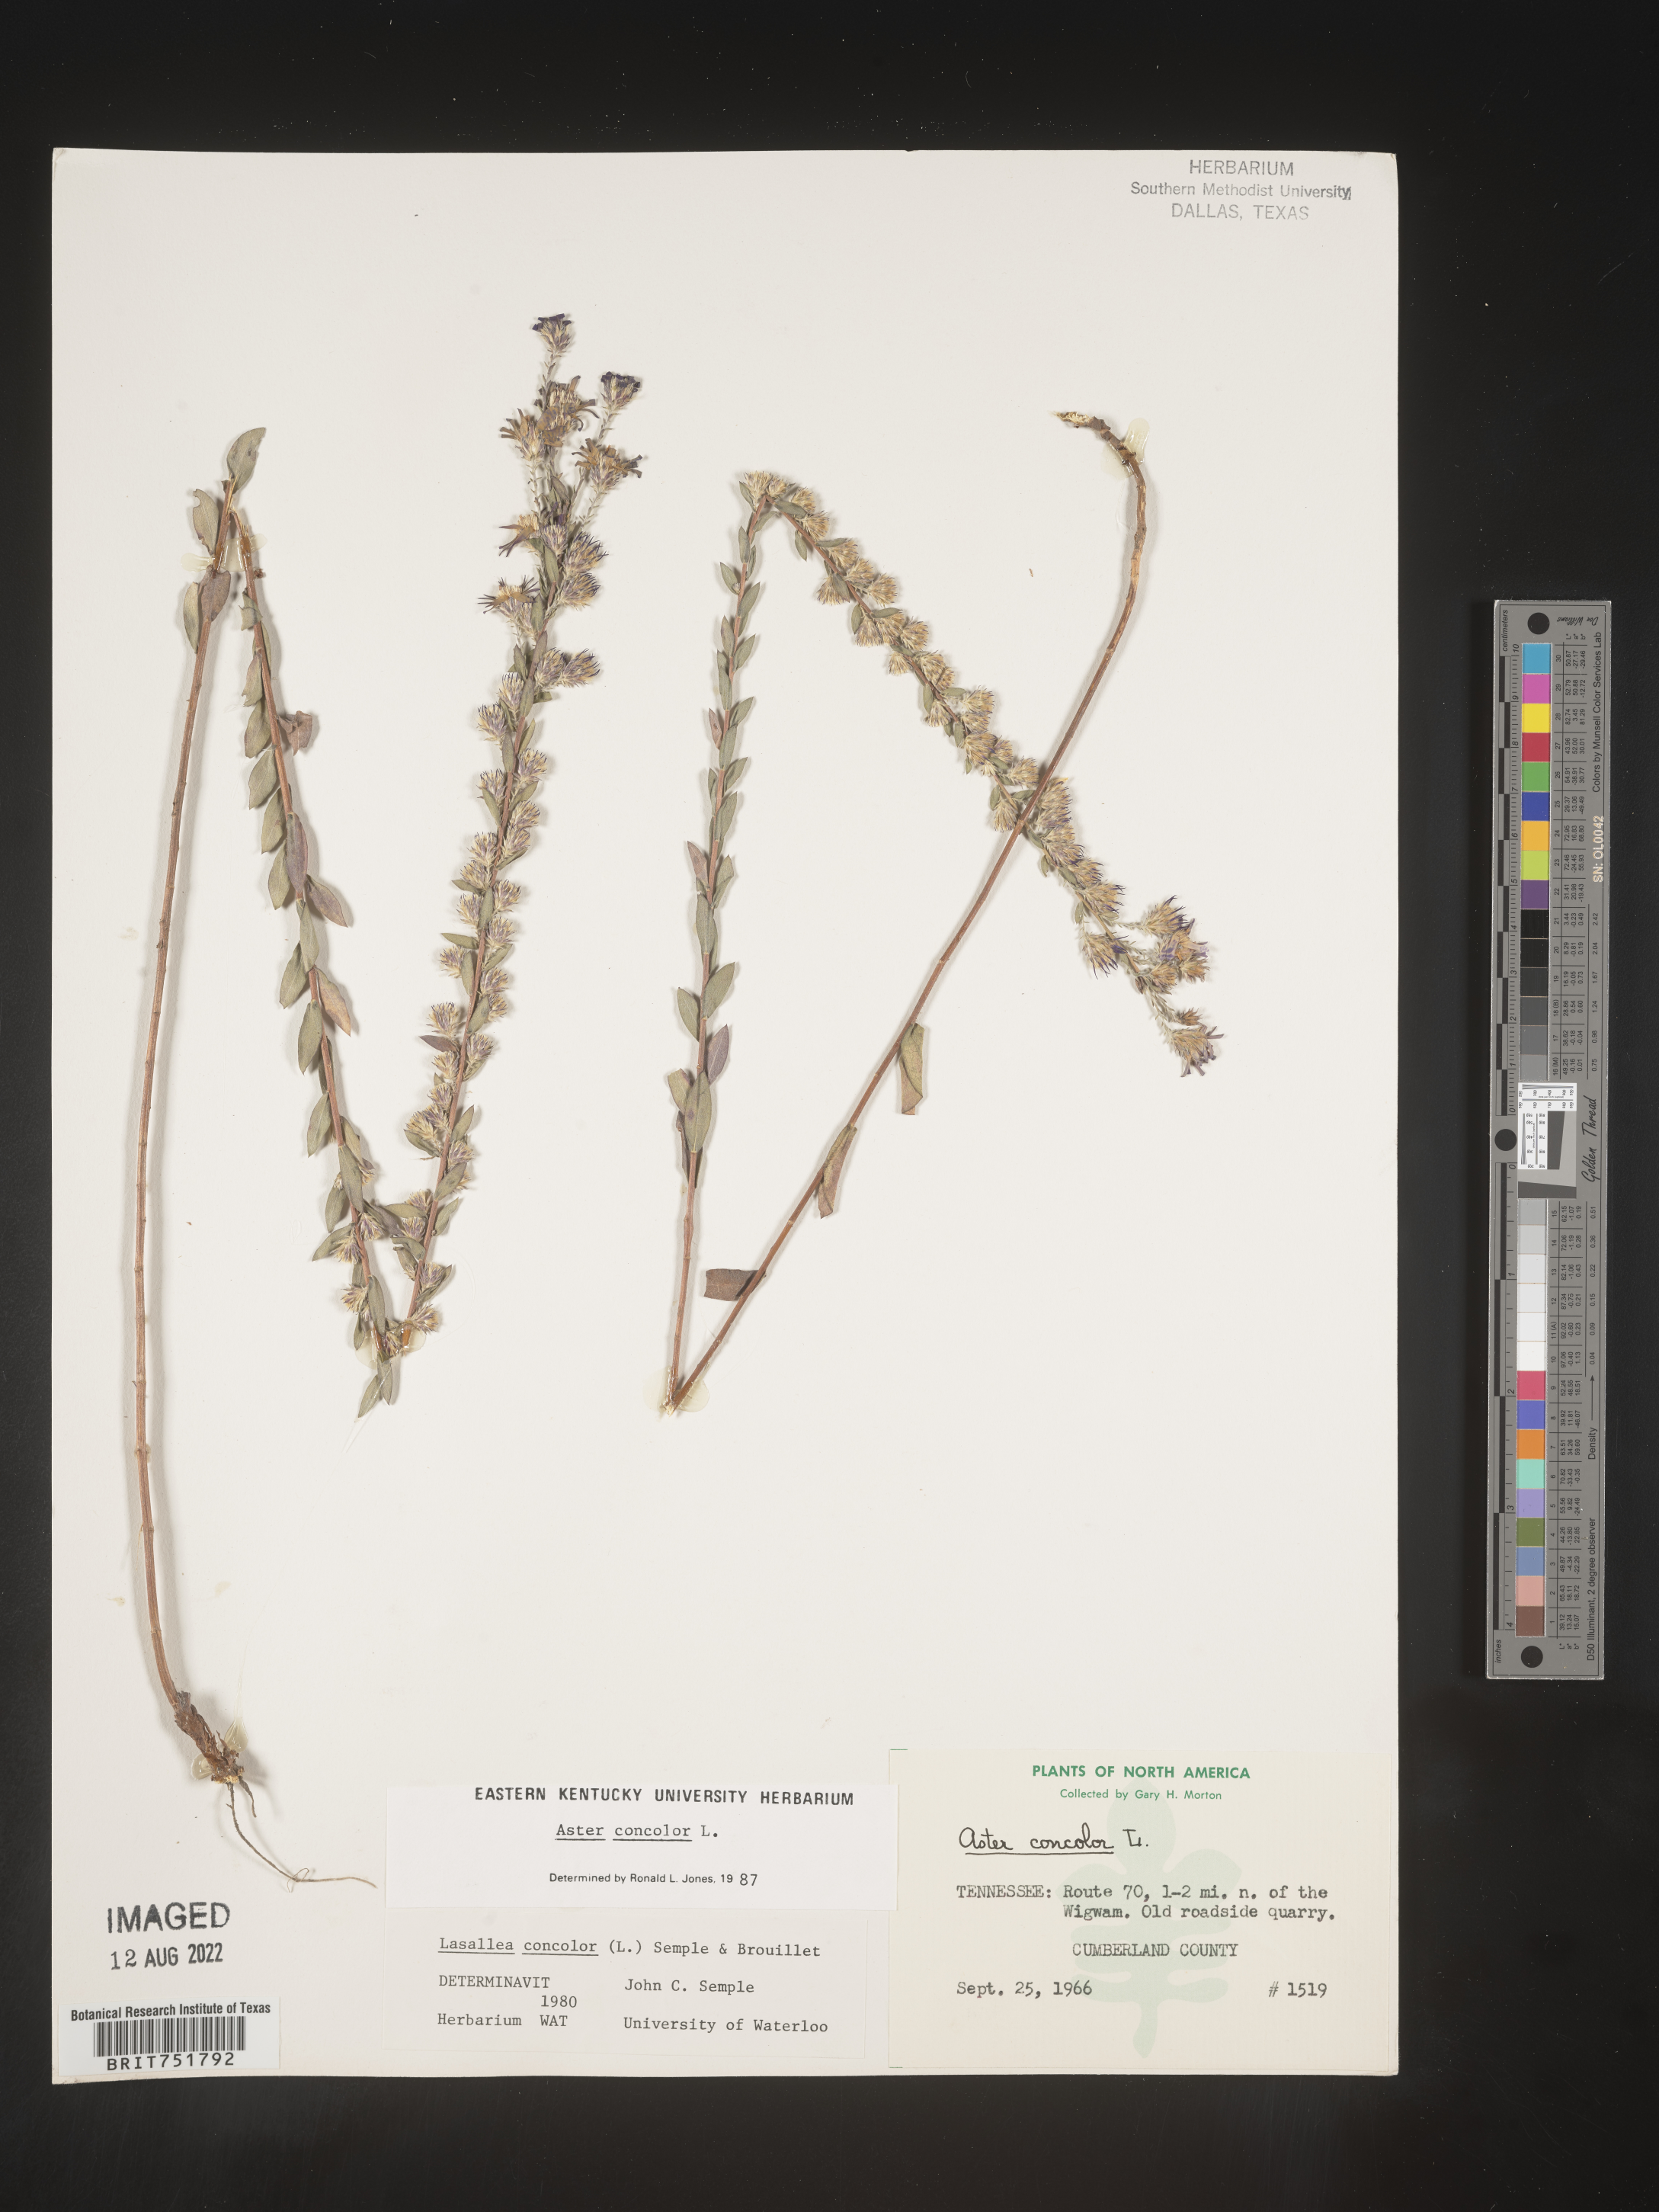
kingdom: Plantae
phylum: Tracheophyta
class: Magnoliopsida
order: Asterales
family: Asteraceae
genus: Symphyotrichum
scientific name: Symphyotrichum concolor
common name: Eastern silver aster
